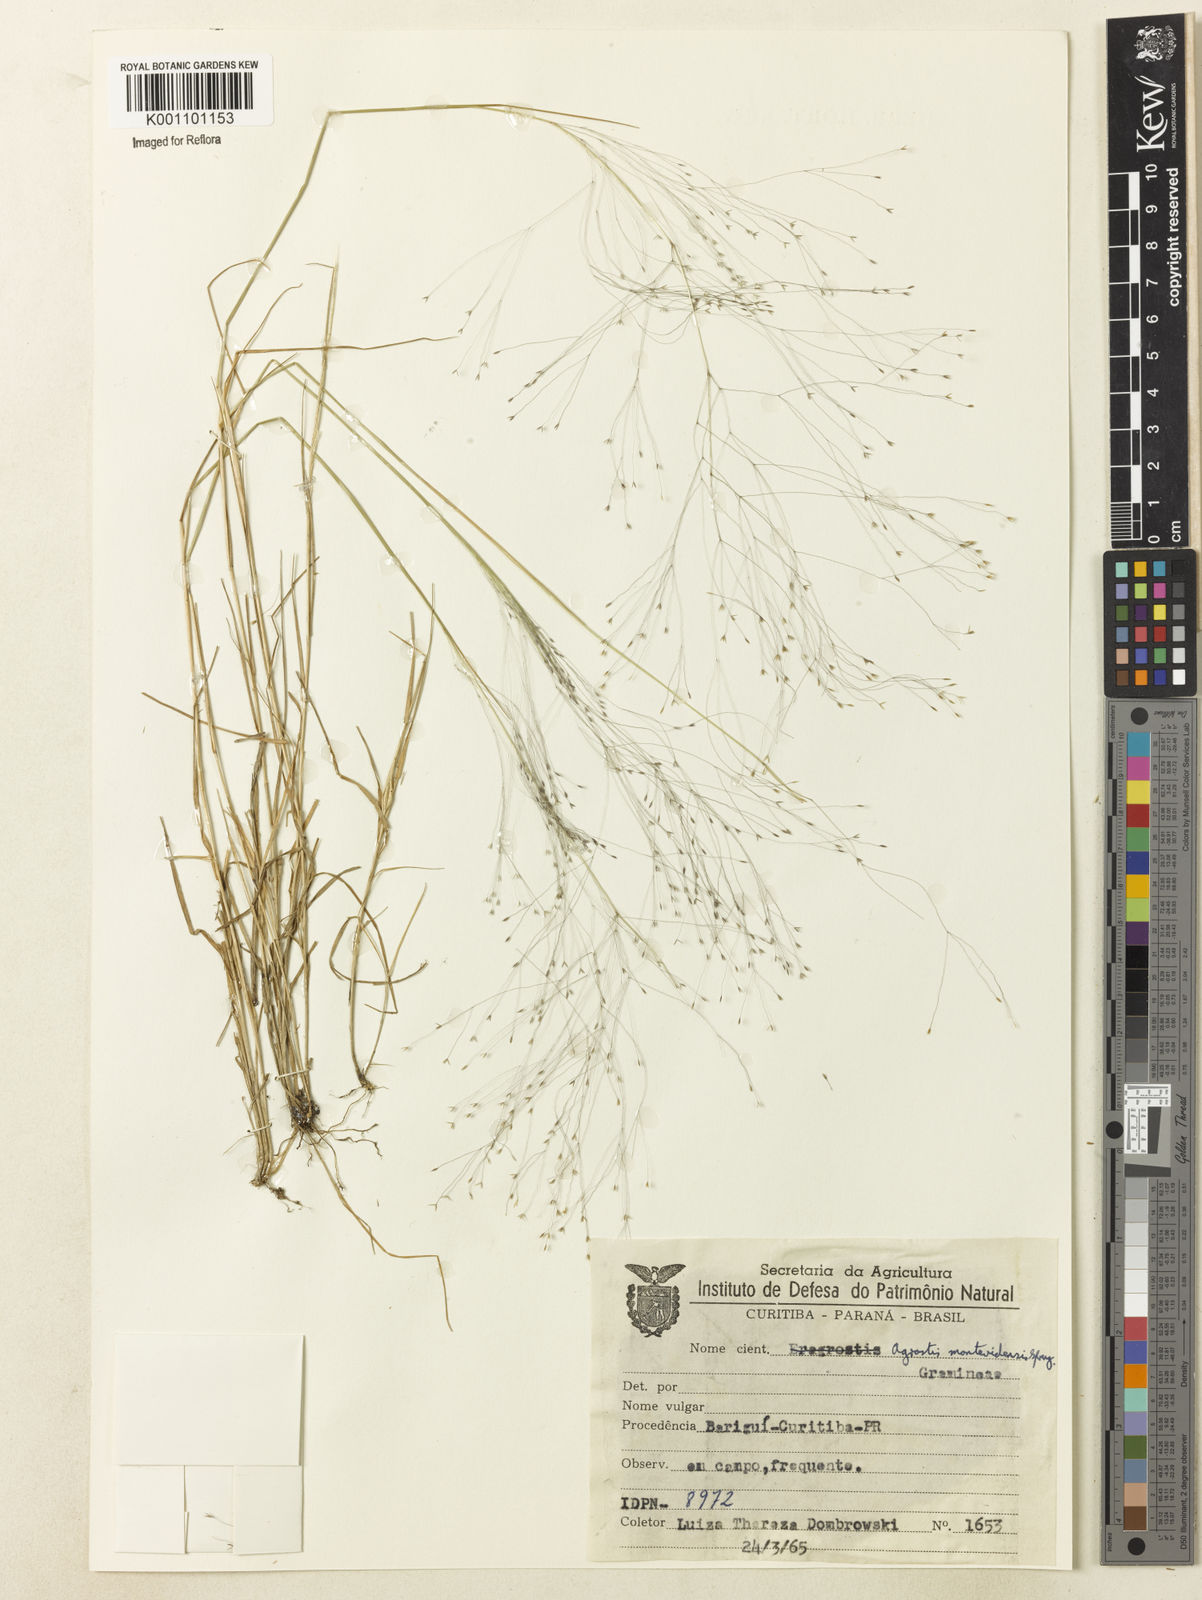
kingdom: Plantae
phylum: Tracheophyta
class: Liliopsida
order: Poales
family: Poaceae
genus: Agrostis
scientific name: Agrostis montevidensis
